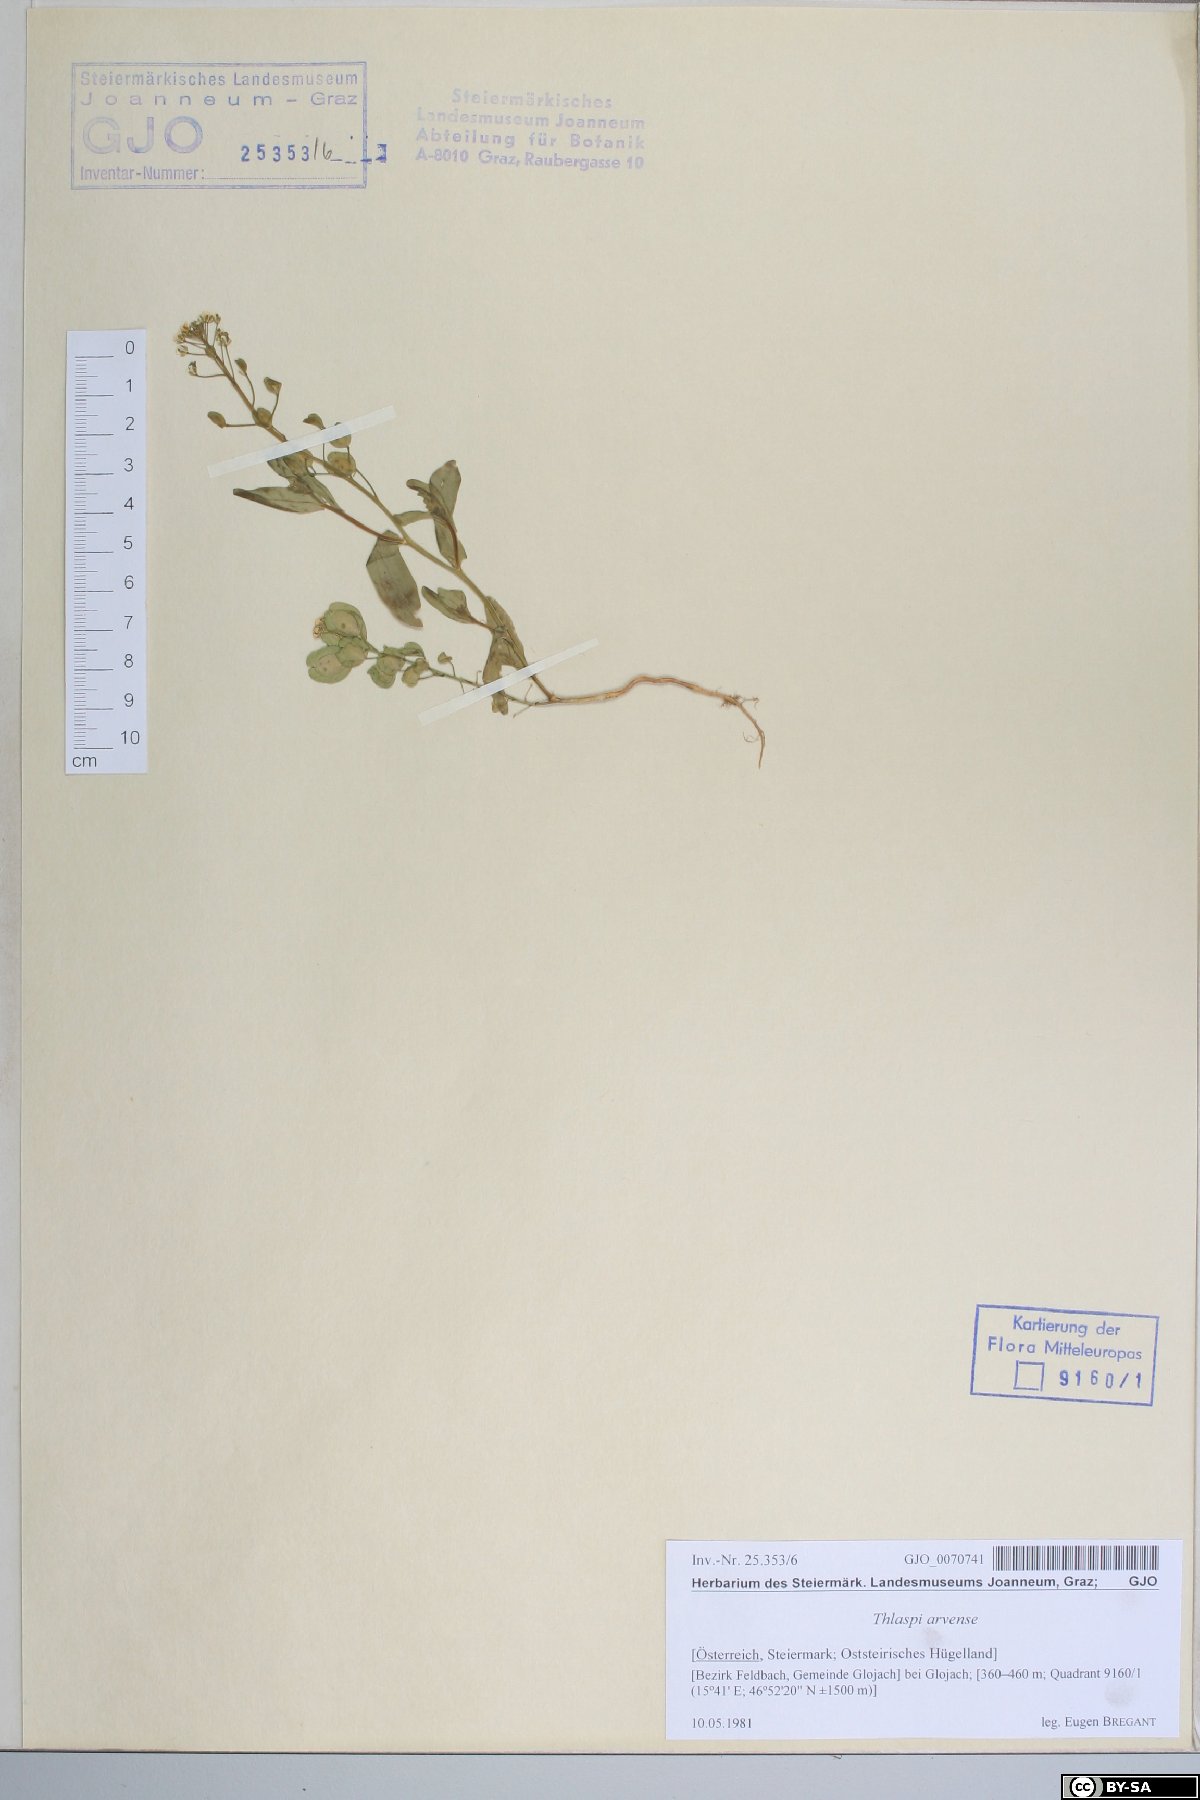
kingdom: Plantae
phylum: Tracheophyta
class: Magnoliopsida
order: Brassicales
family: Brassicaceae
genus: Thlaspi
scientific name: Thlaspi arvense
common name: Field pennycress
